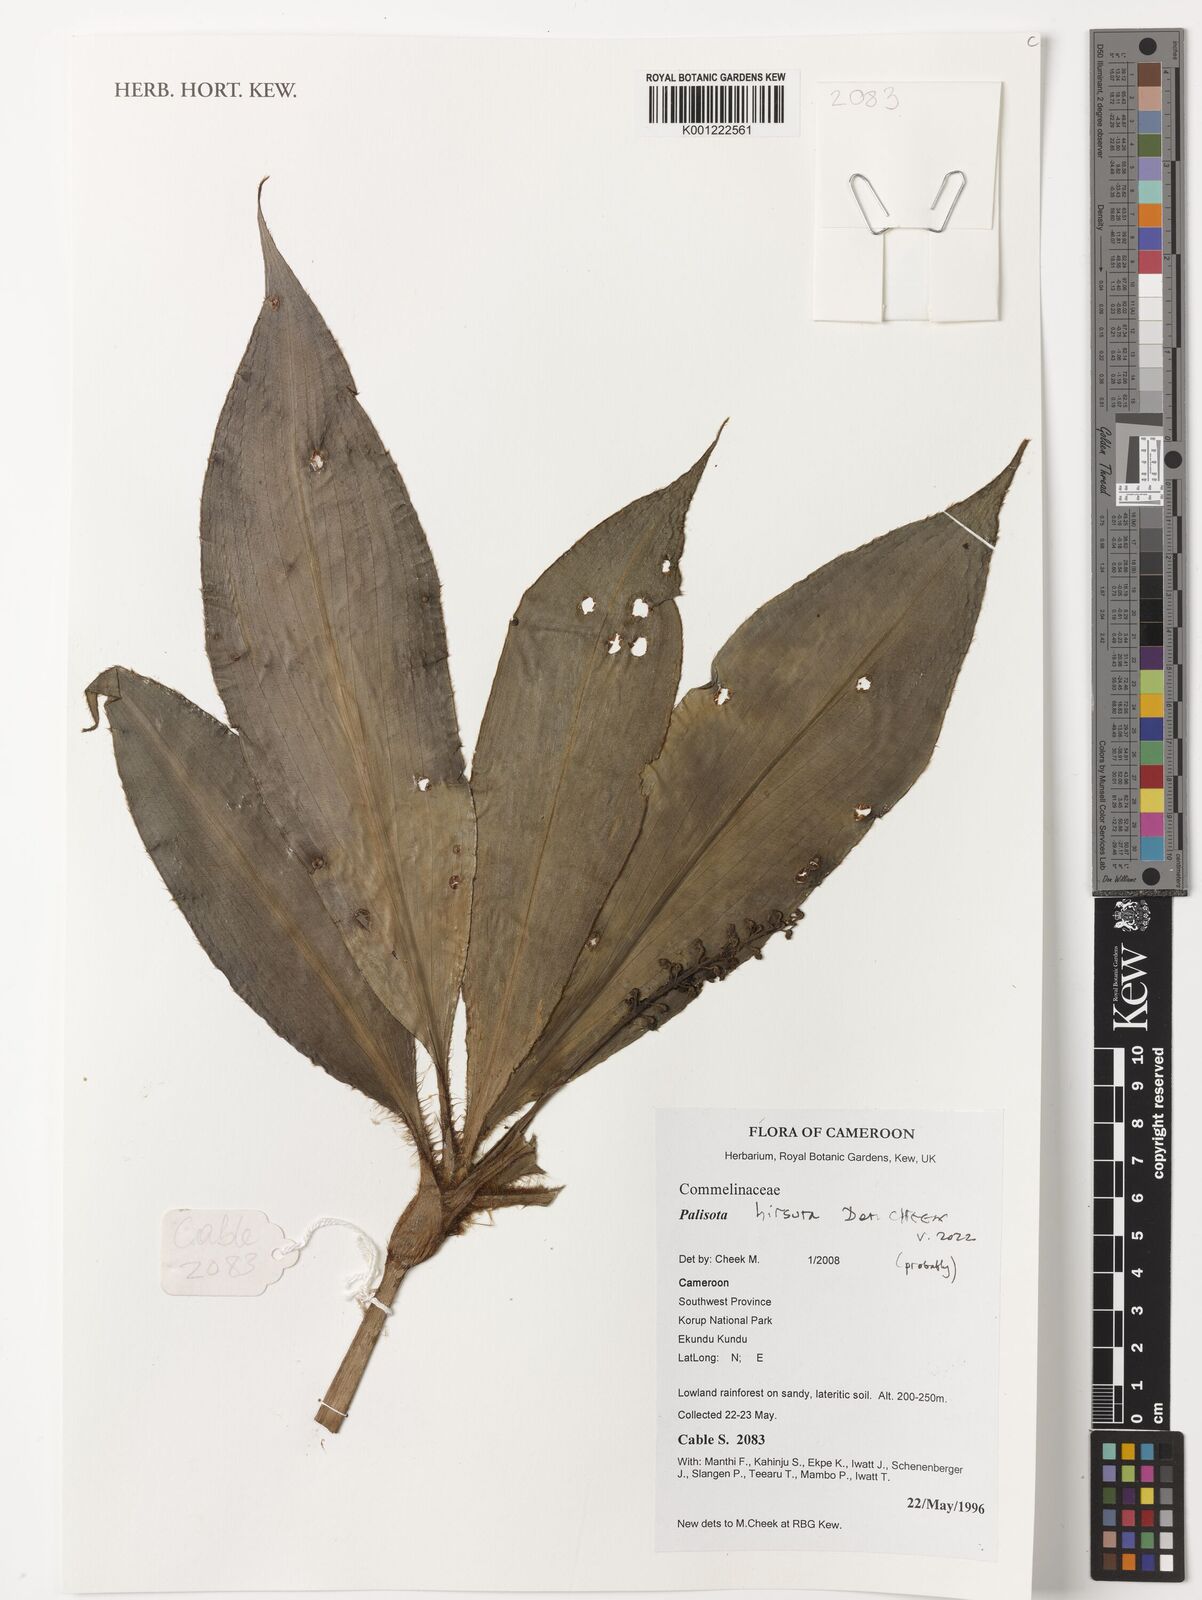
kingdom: Plantae
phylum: Tracheophyta
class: Liliopsida
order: Commelinales
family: Commelinaceae
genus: Palisota
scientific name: Palisota hirsuta
